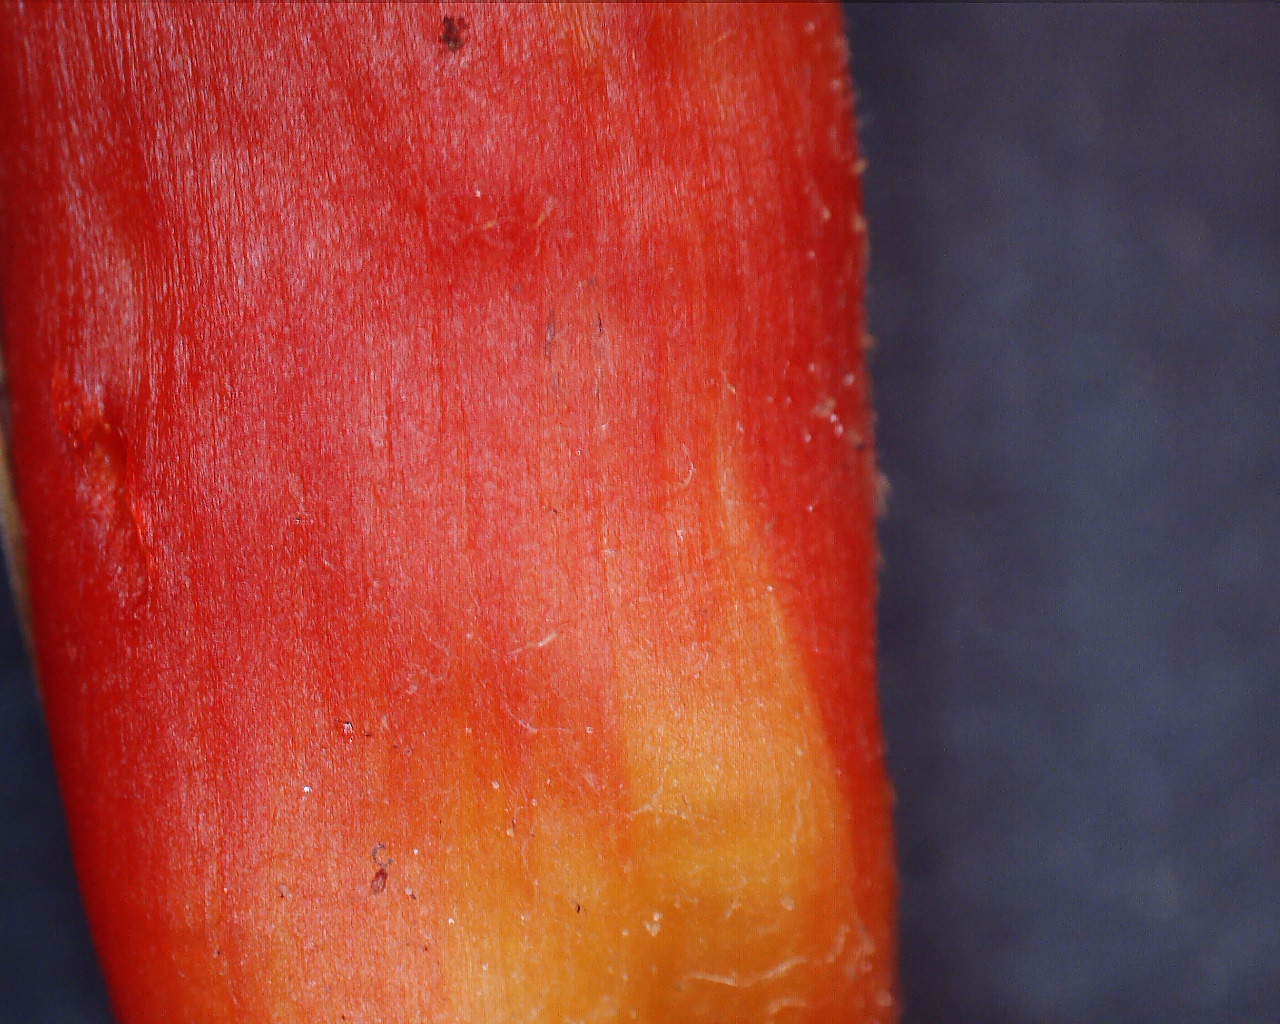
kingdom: Fungi
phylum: Basidiomycota
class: Agaricomycetes
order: Agaricales
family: Hygrophoraceae
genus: Hygrocybe
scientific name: Hygrocybe splendidissima
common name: knaldrød vokshat
